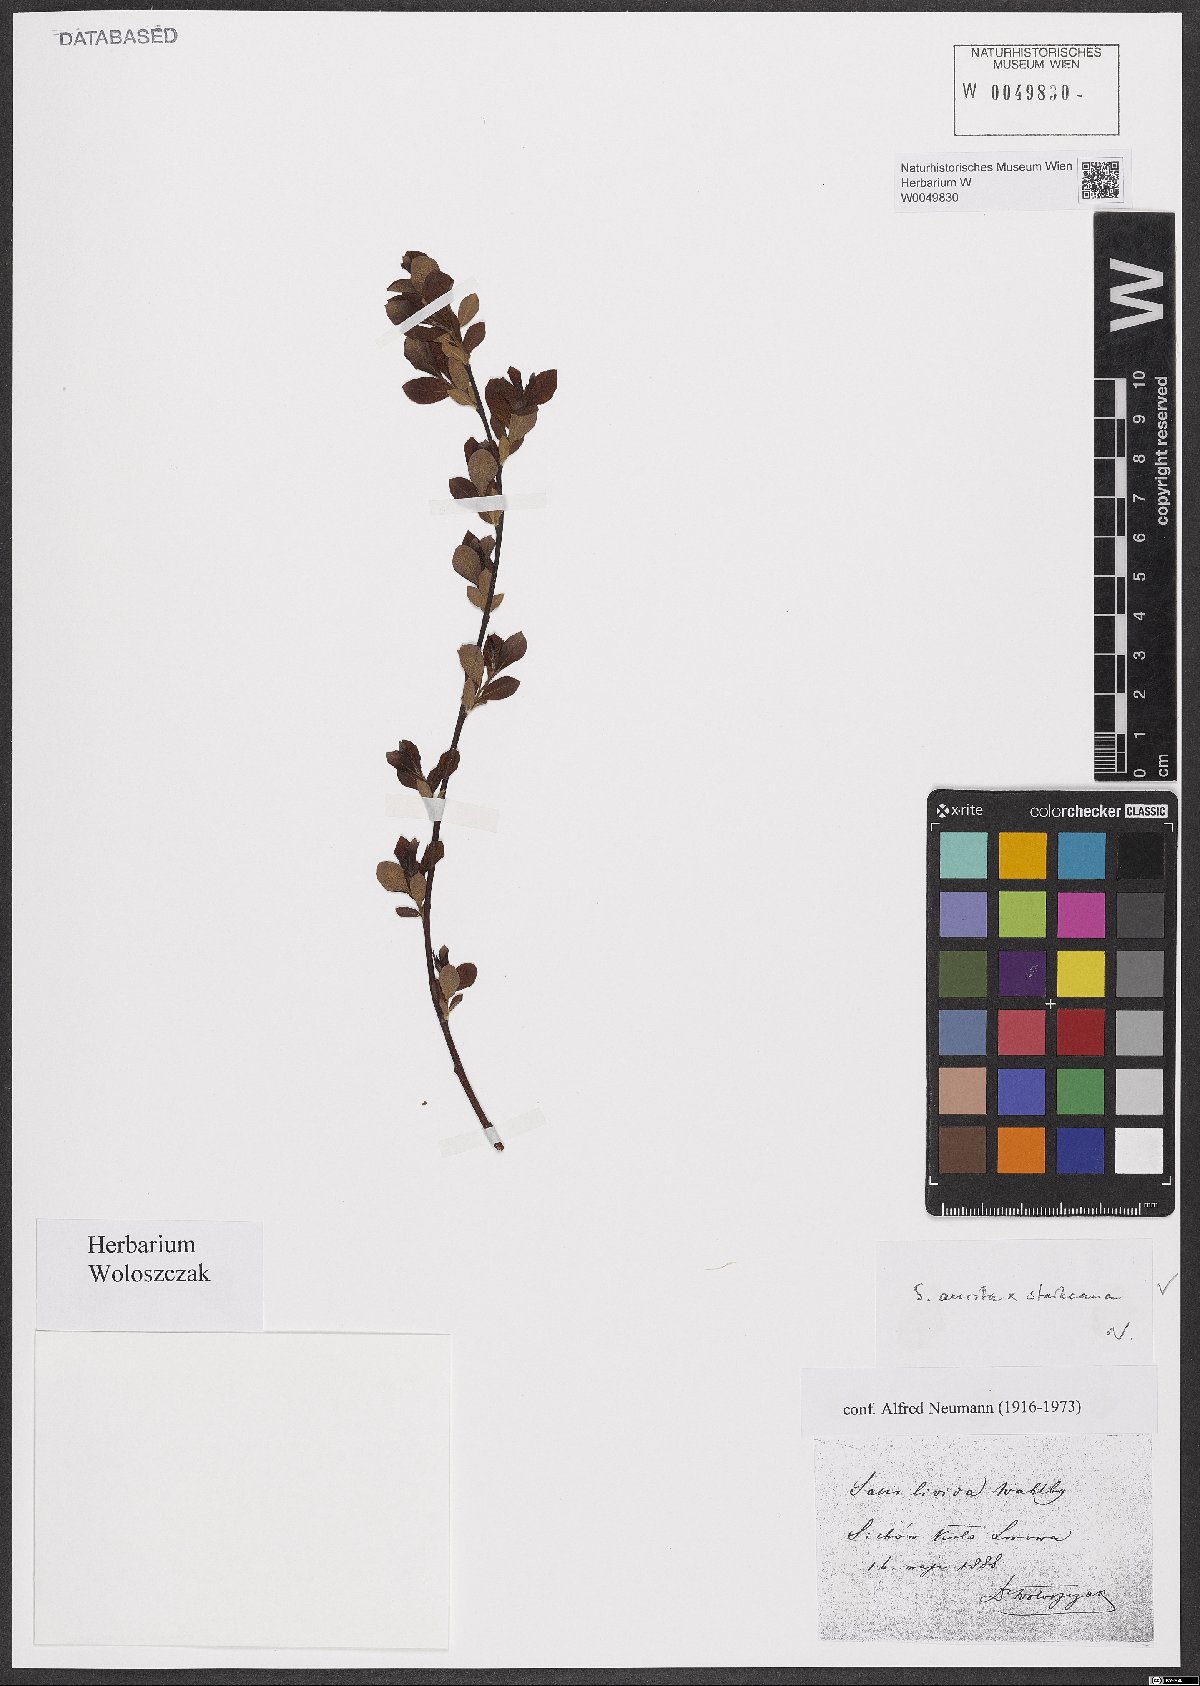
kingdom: Plantae
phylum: Tracheophyta
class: Magnoliopsida
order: Malpighiales
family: Salicaceae
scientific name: Salicaceae
